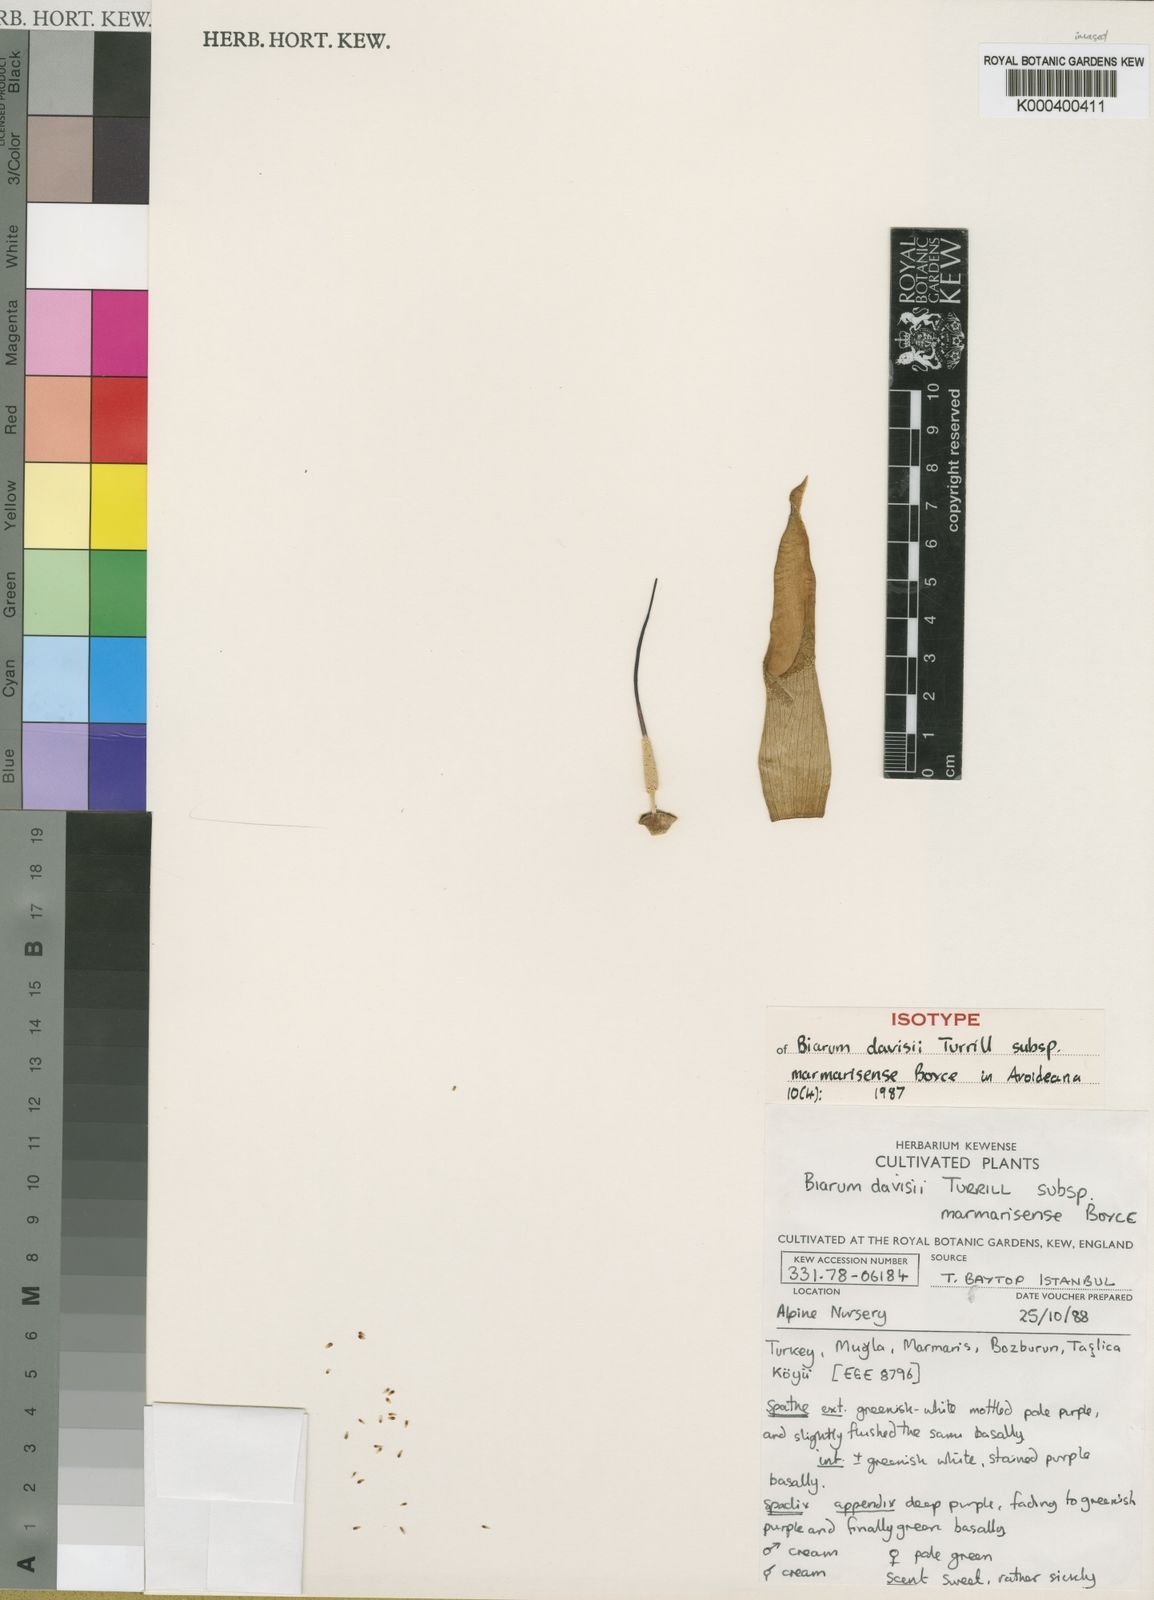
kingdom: Plantae
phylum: Tracheophyta
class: Liliopsida
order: Alismatales
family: Araceae
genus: Biarum
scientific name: Biarum marmarisense
